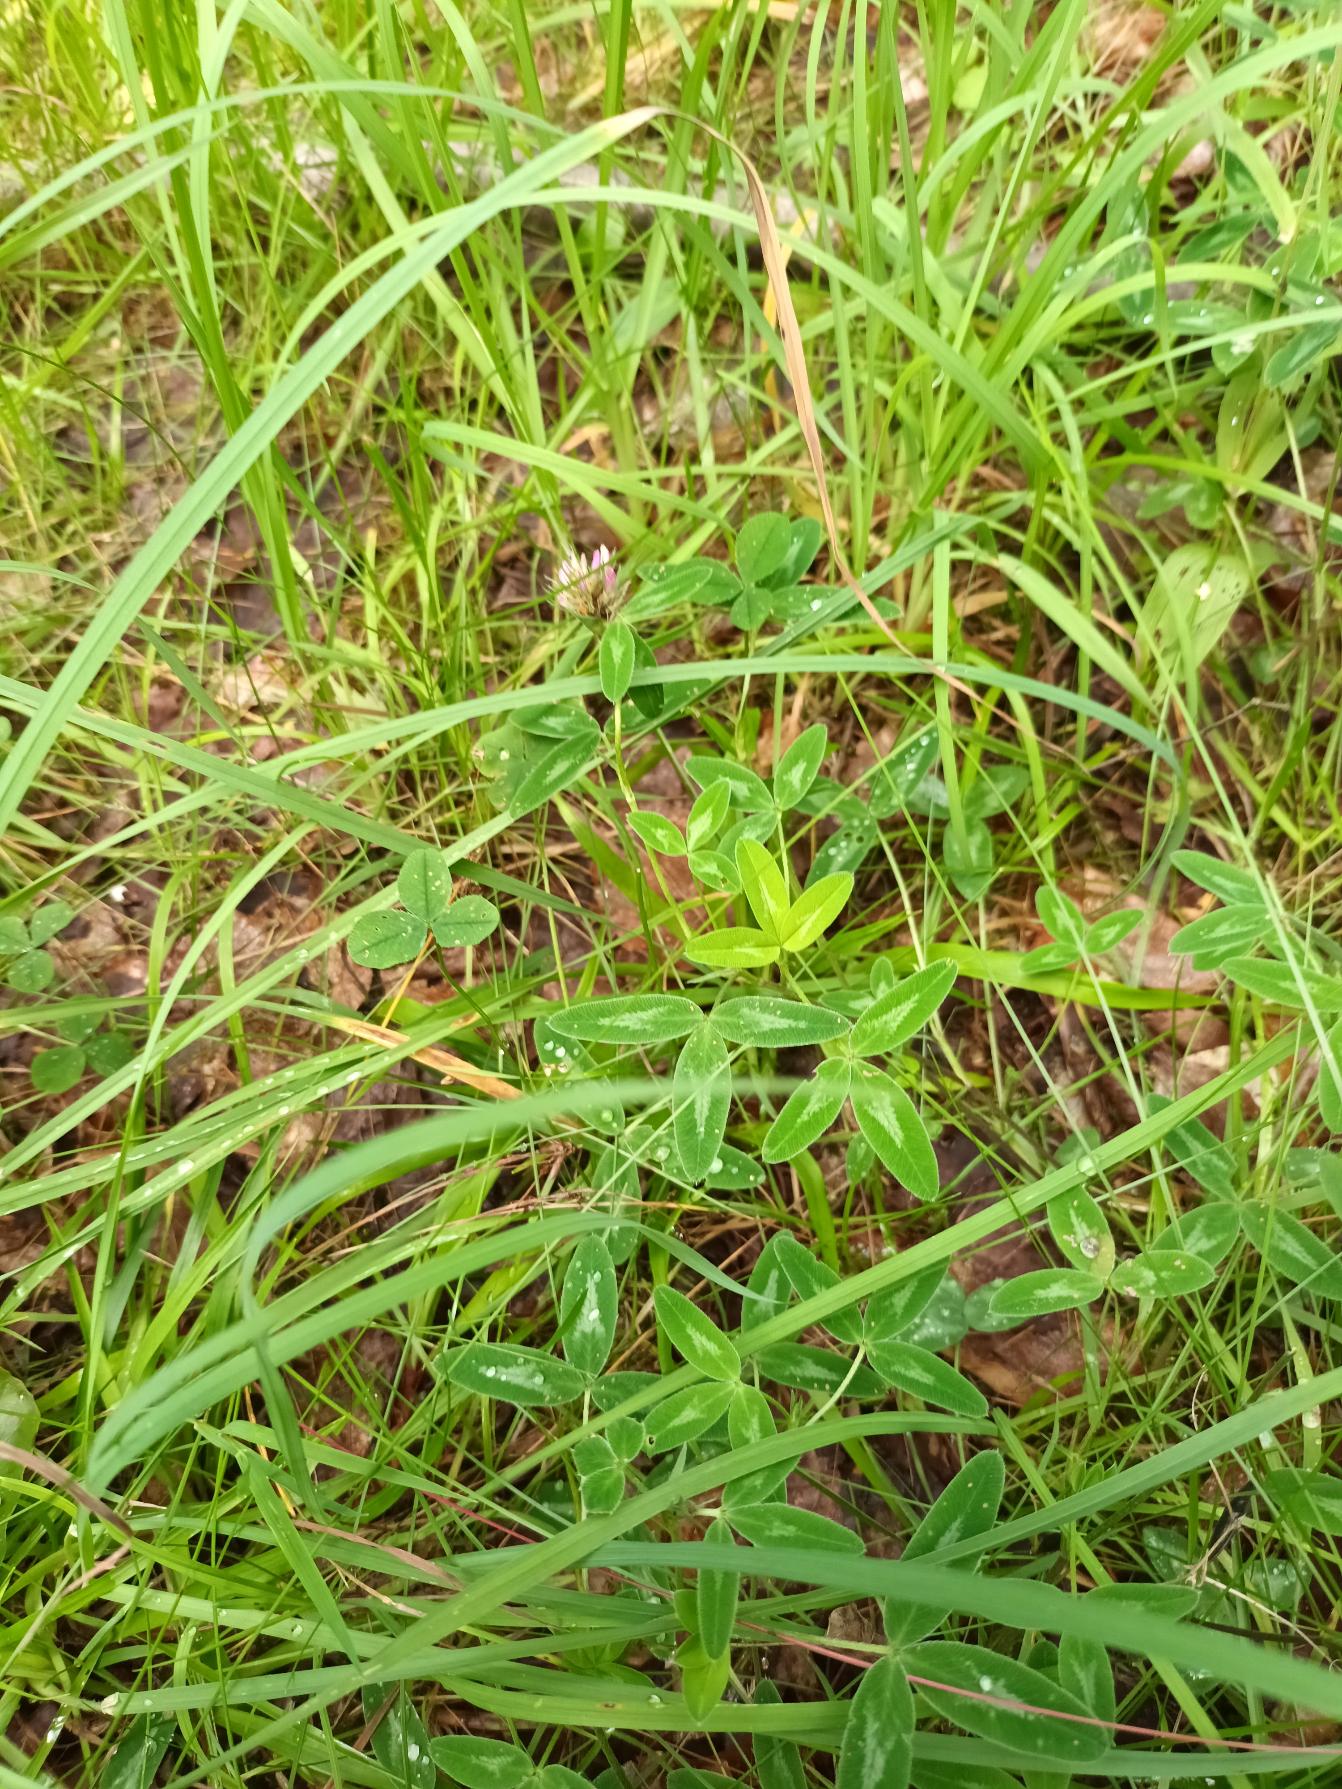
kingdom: Plantae
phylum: Tracheophyta
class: Magnoliopsida
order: Fabales
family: Fabaceae
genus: Trifolium
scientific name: Trifolium medium
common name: Bugtet kløver
